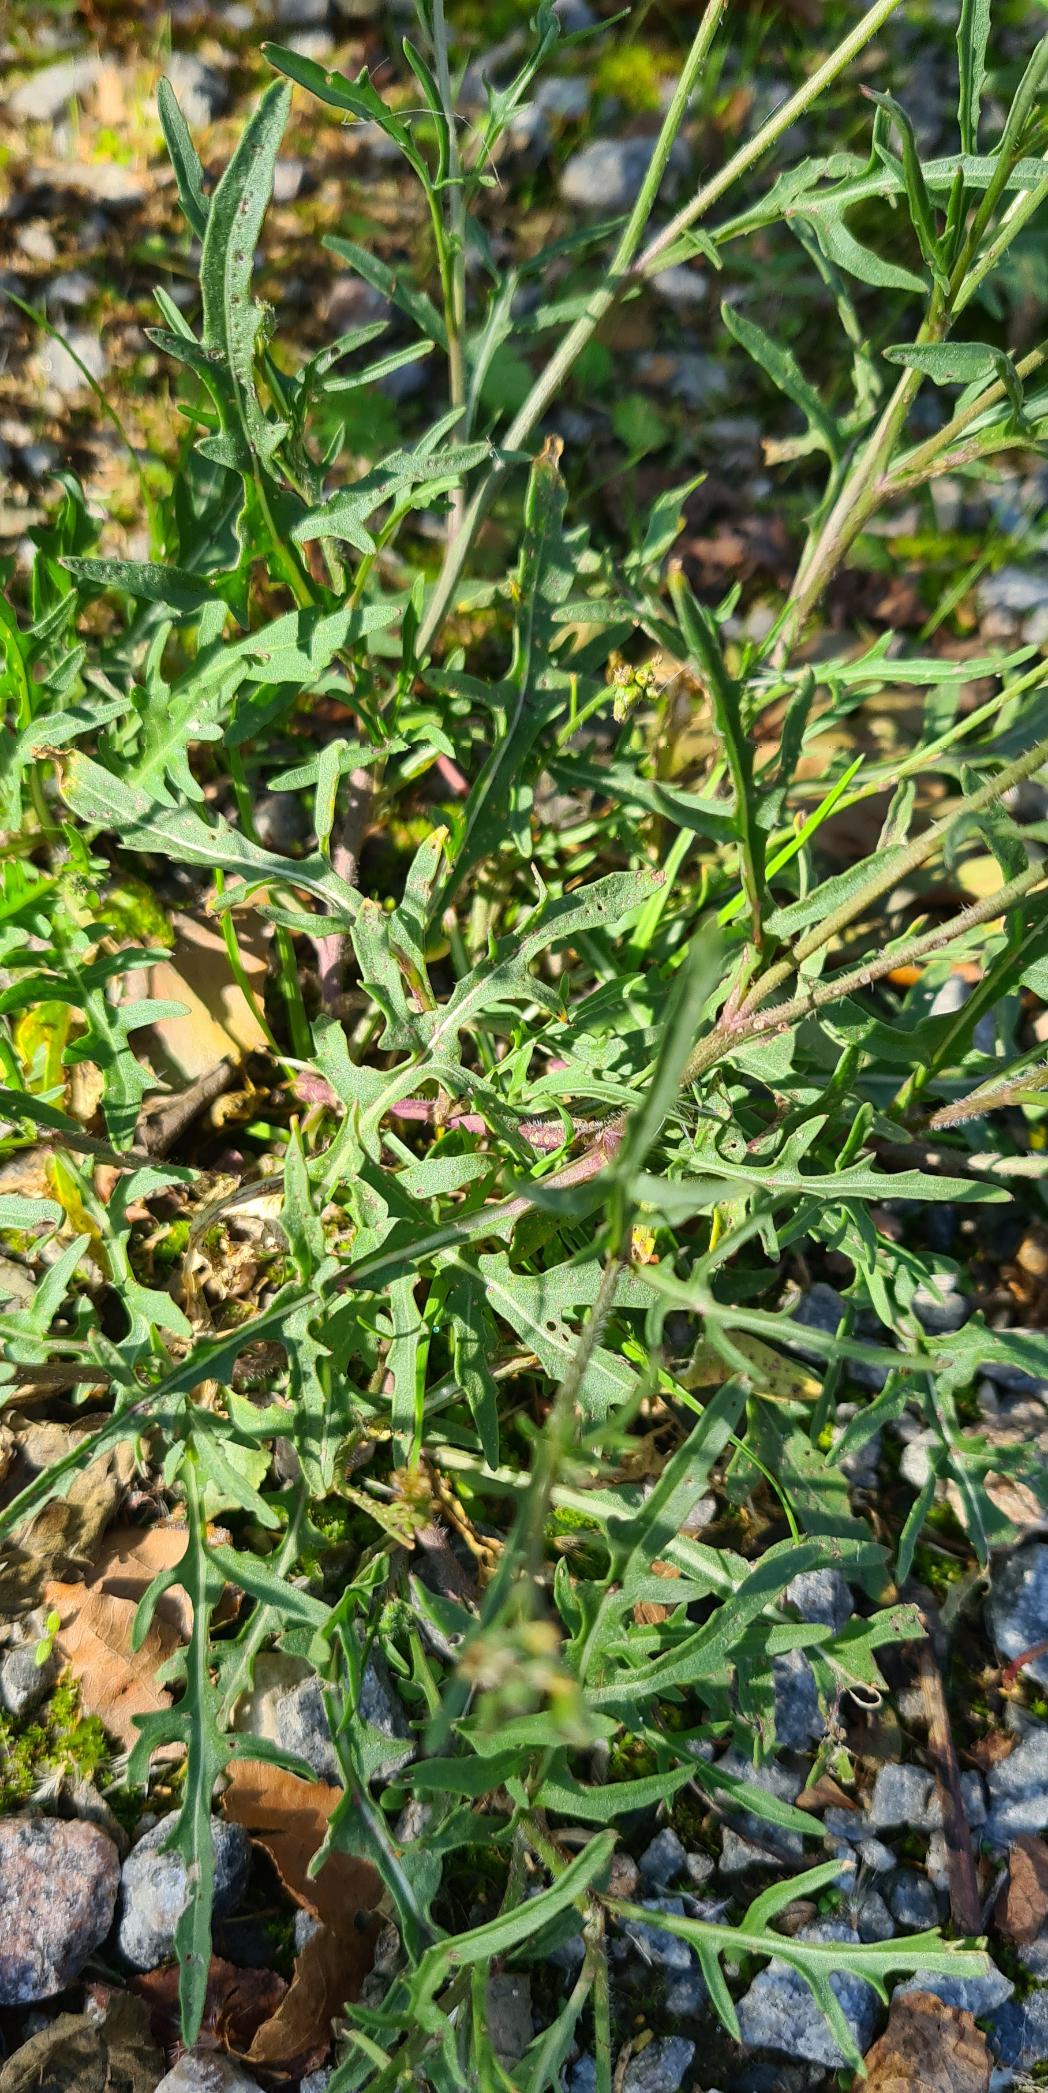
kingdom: Plantae
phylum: Tracheophyta
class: Magnoliopsida
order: Brassicales
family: Brassicaceae
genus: Diplotaxis
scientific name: Diplotaxis
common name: Mursennepslægten
